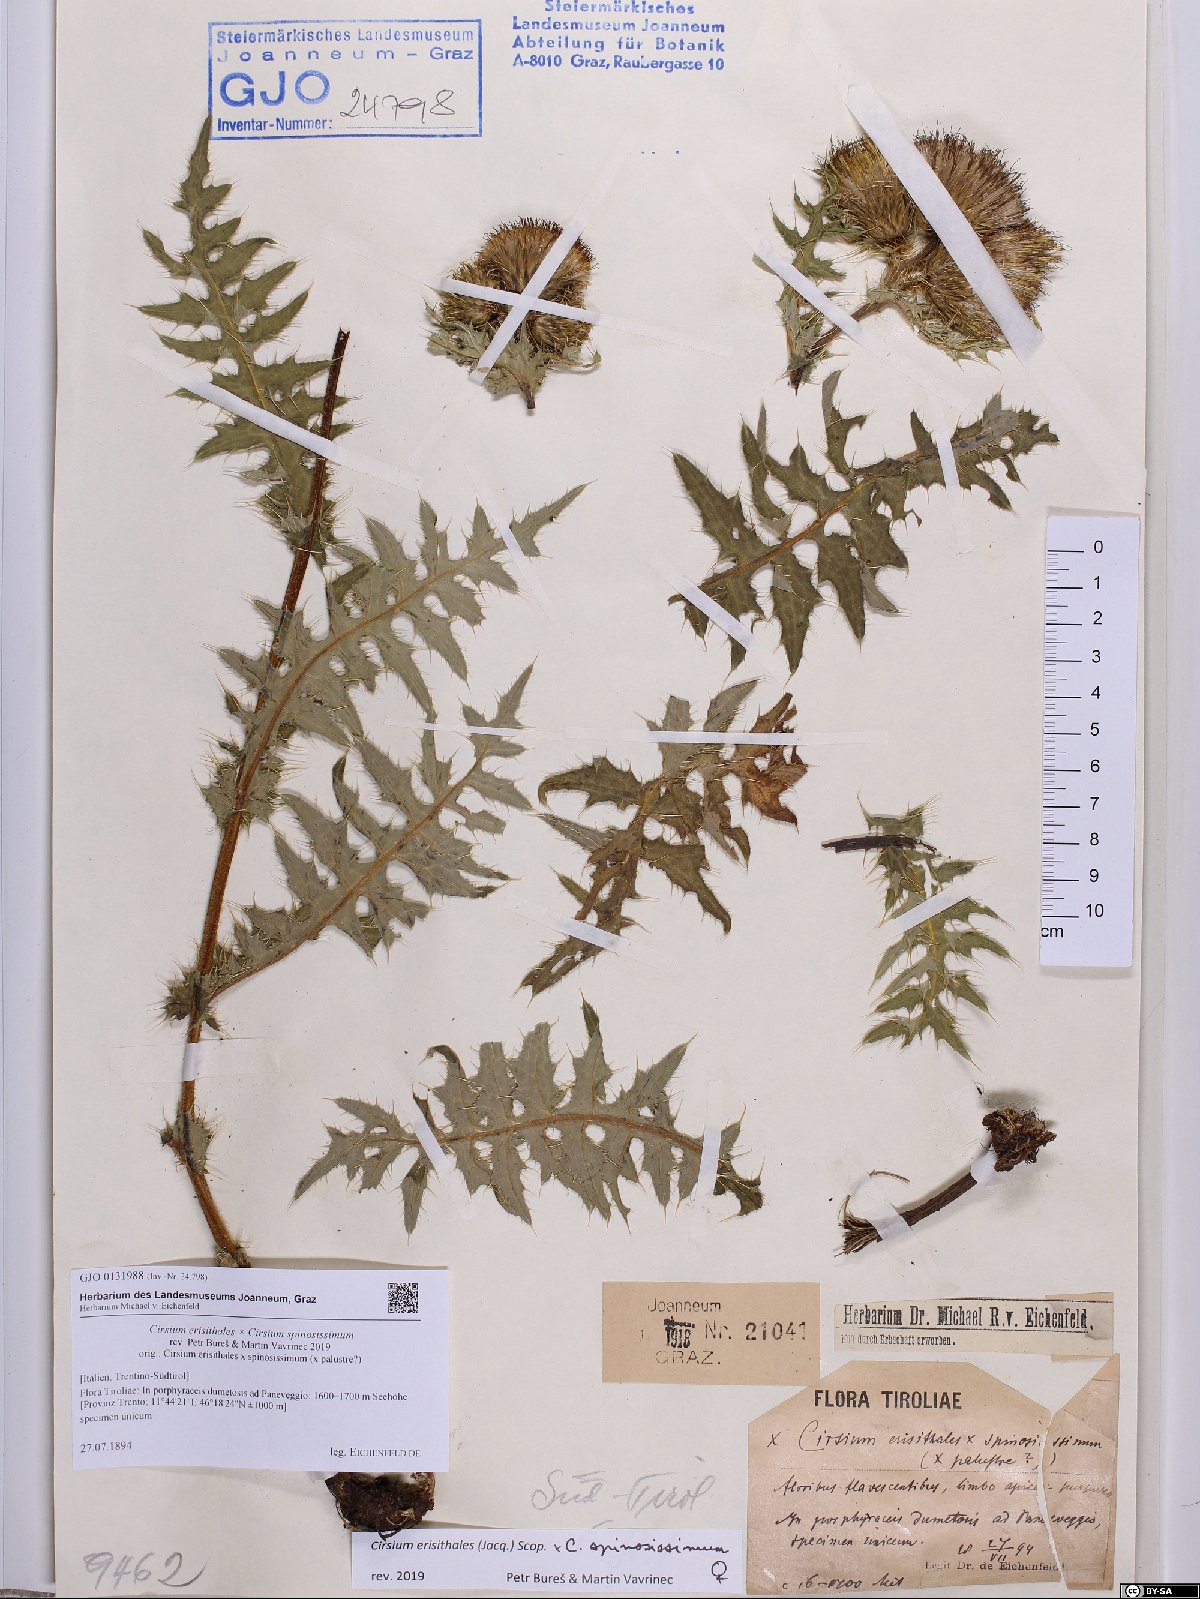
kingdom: Plantae
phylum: Tracheophyta
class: Magnoliopsida
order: Asterales
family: Asteraceae
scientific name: Asteraceae
